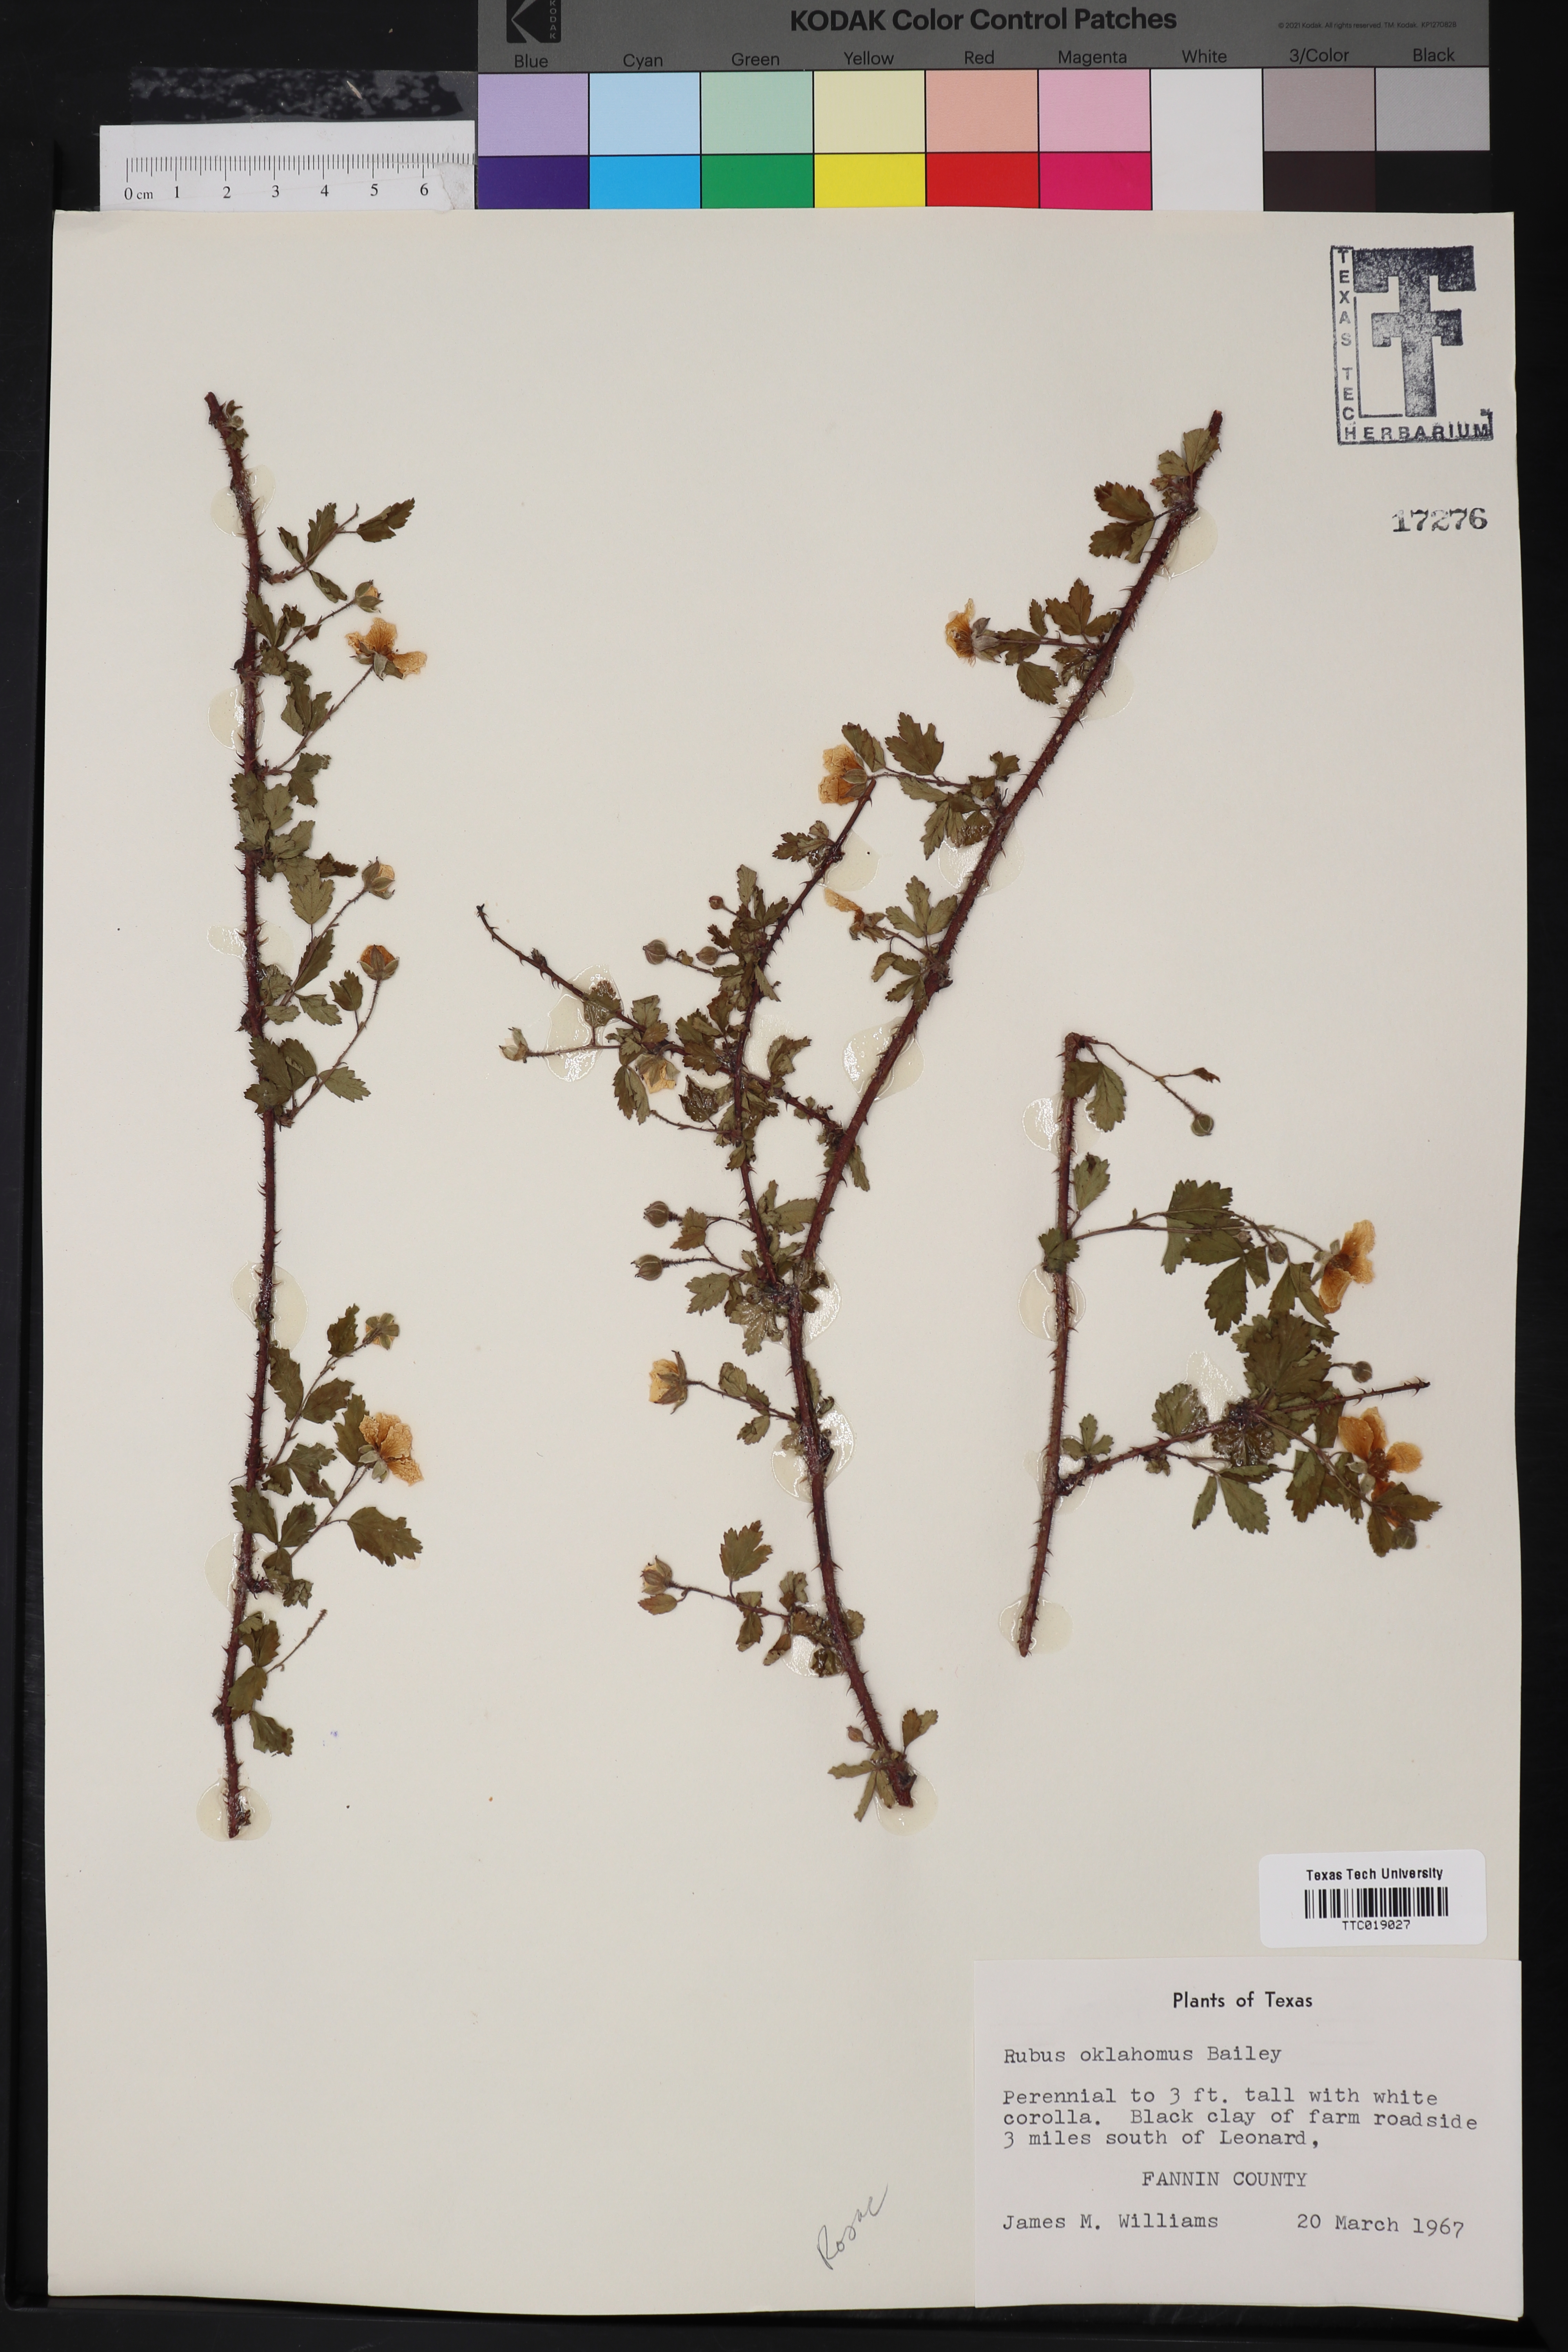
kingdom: Plantae
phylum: Tracheophyta
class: Magnoliopsida
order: Rosales
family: Rosaceae
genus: Rubus
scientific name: Rubus oklahomus
